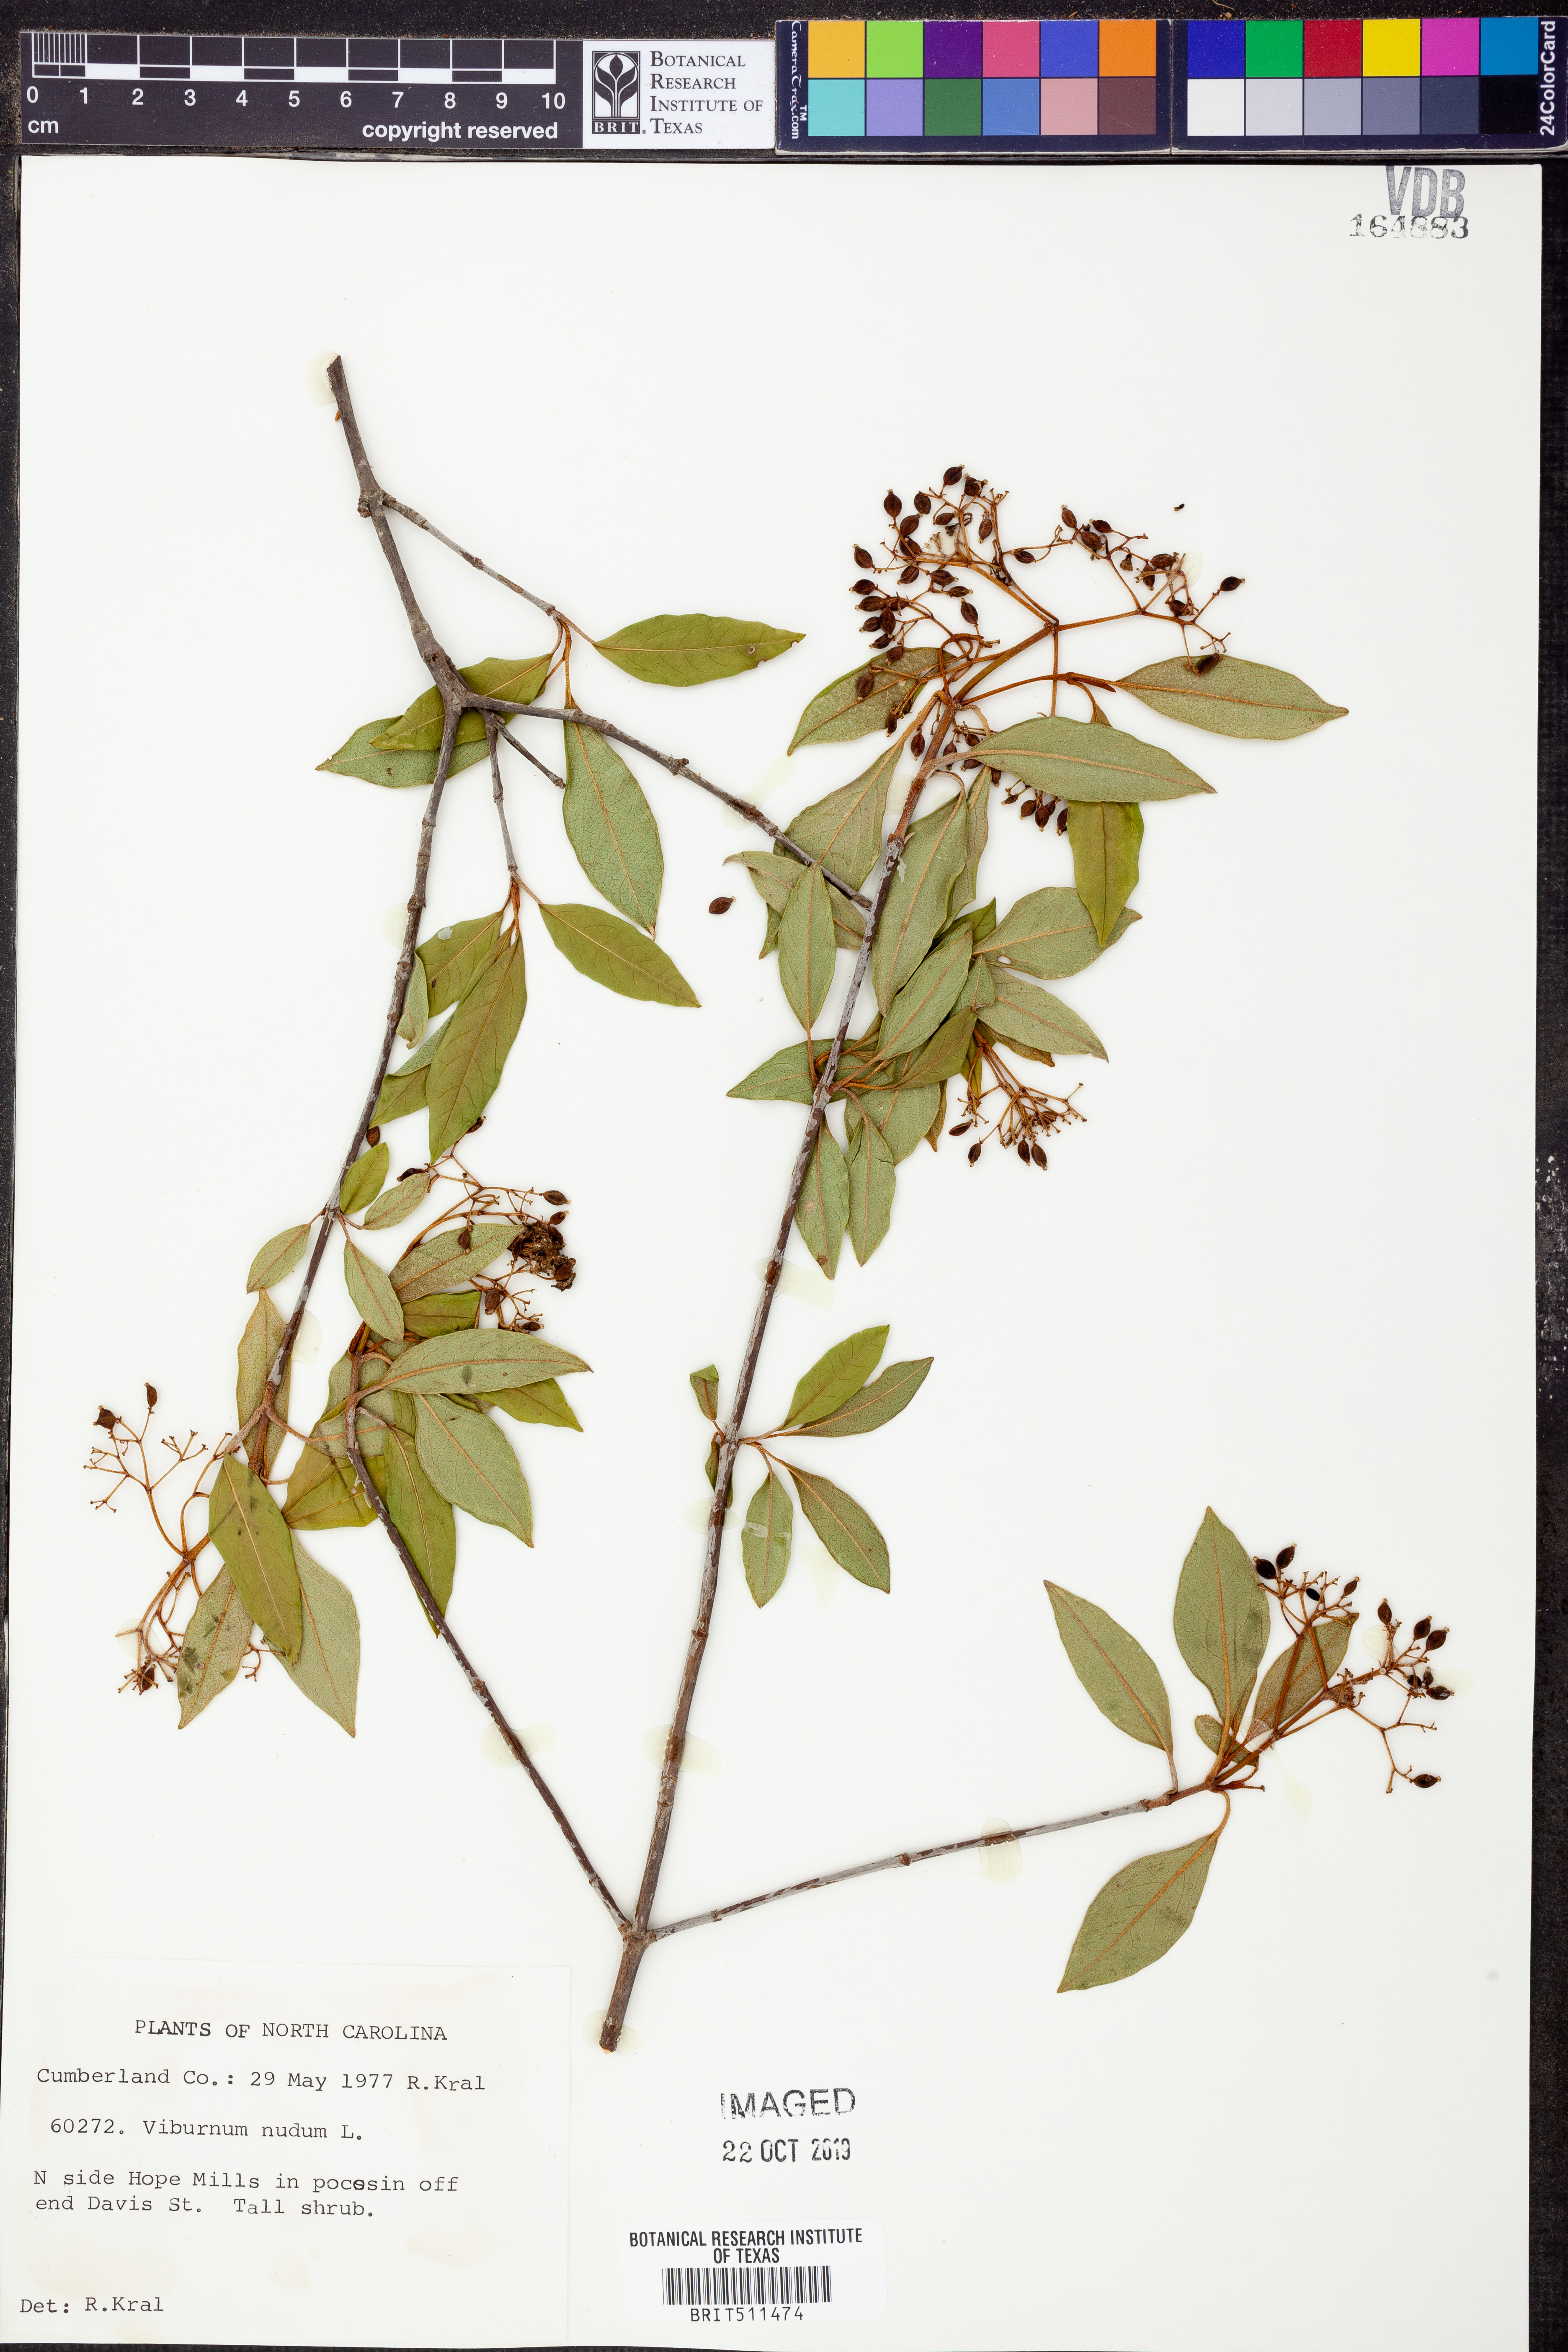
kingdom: Plantae
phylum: Tracheophyta
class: Magnoliopsida
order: Dipsacales
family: Viburnaceae
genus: Viburnum
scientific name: Viburnum nudum
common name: Possum haw
